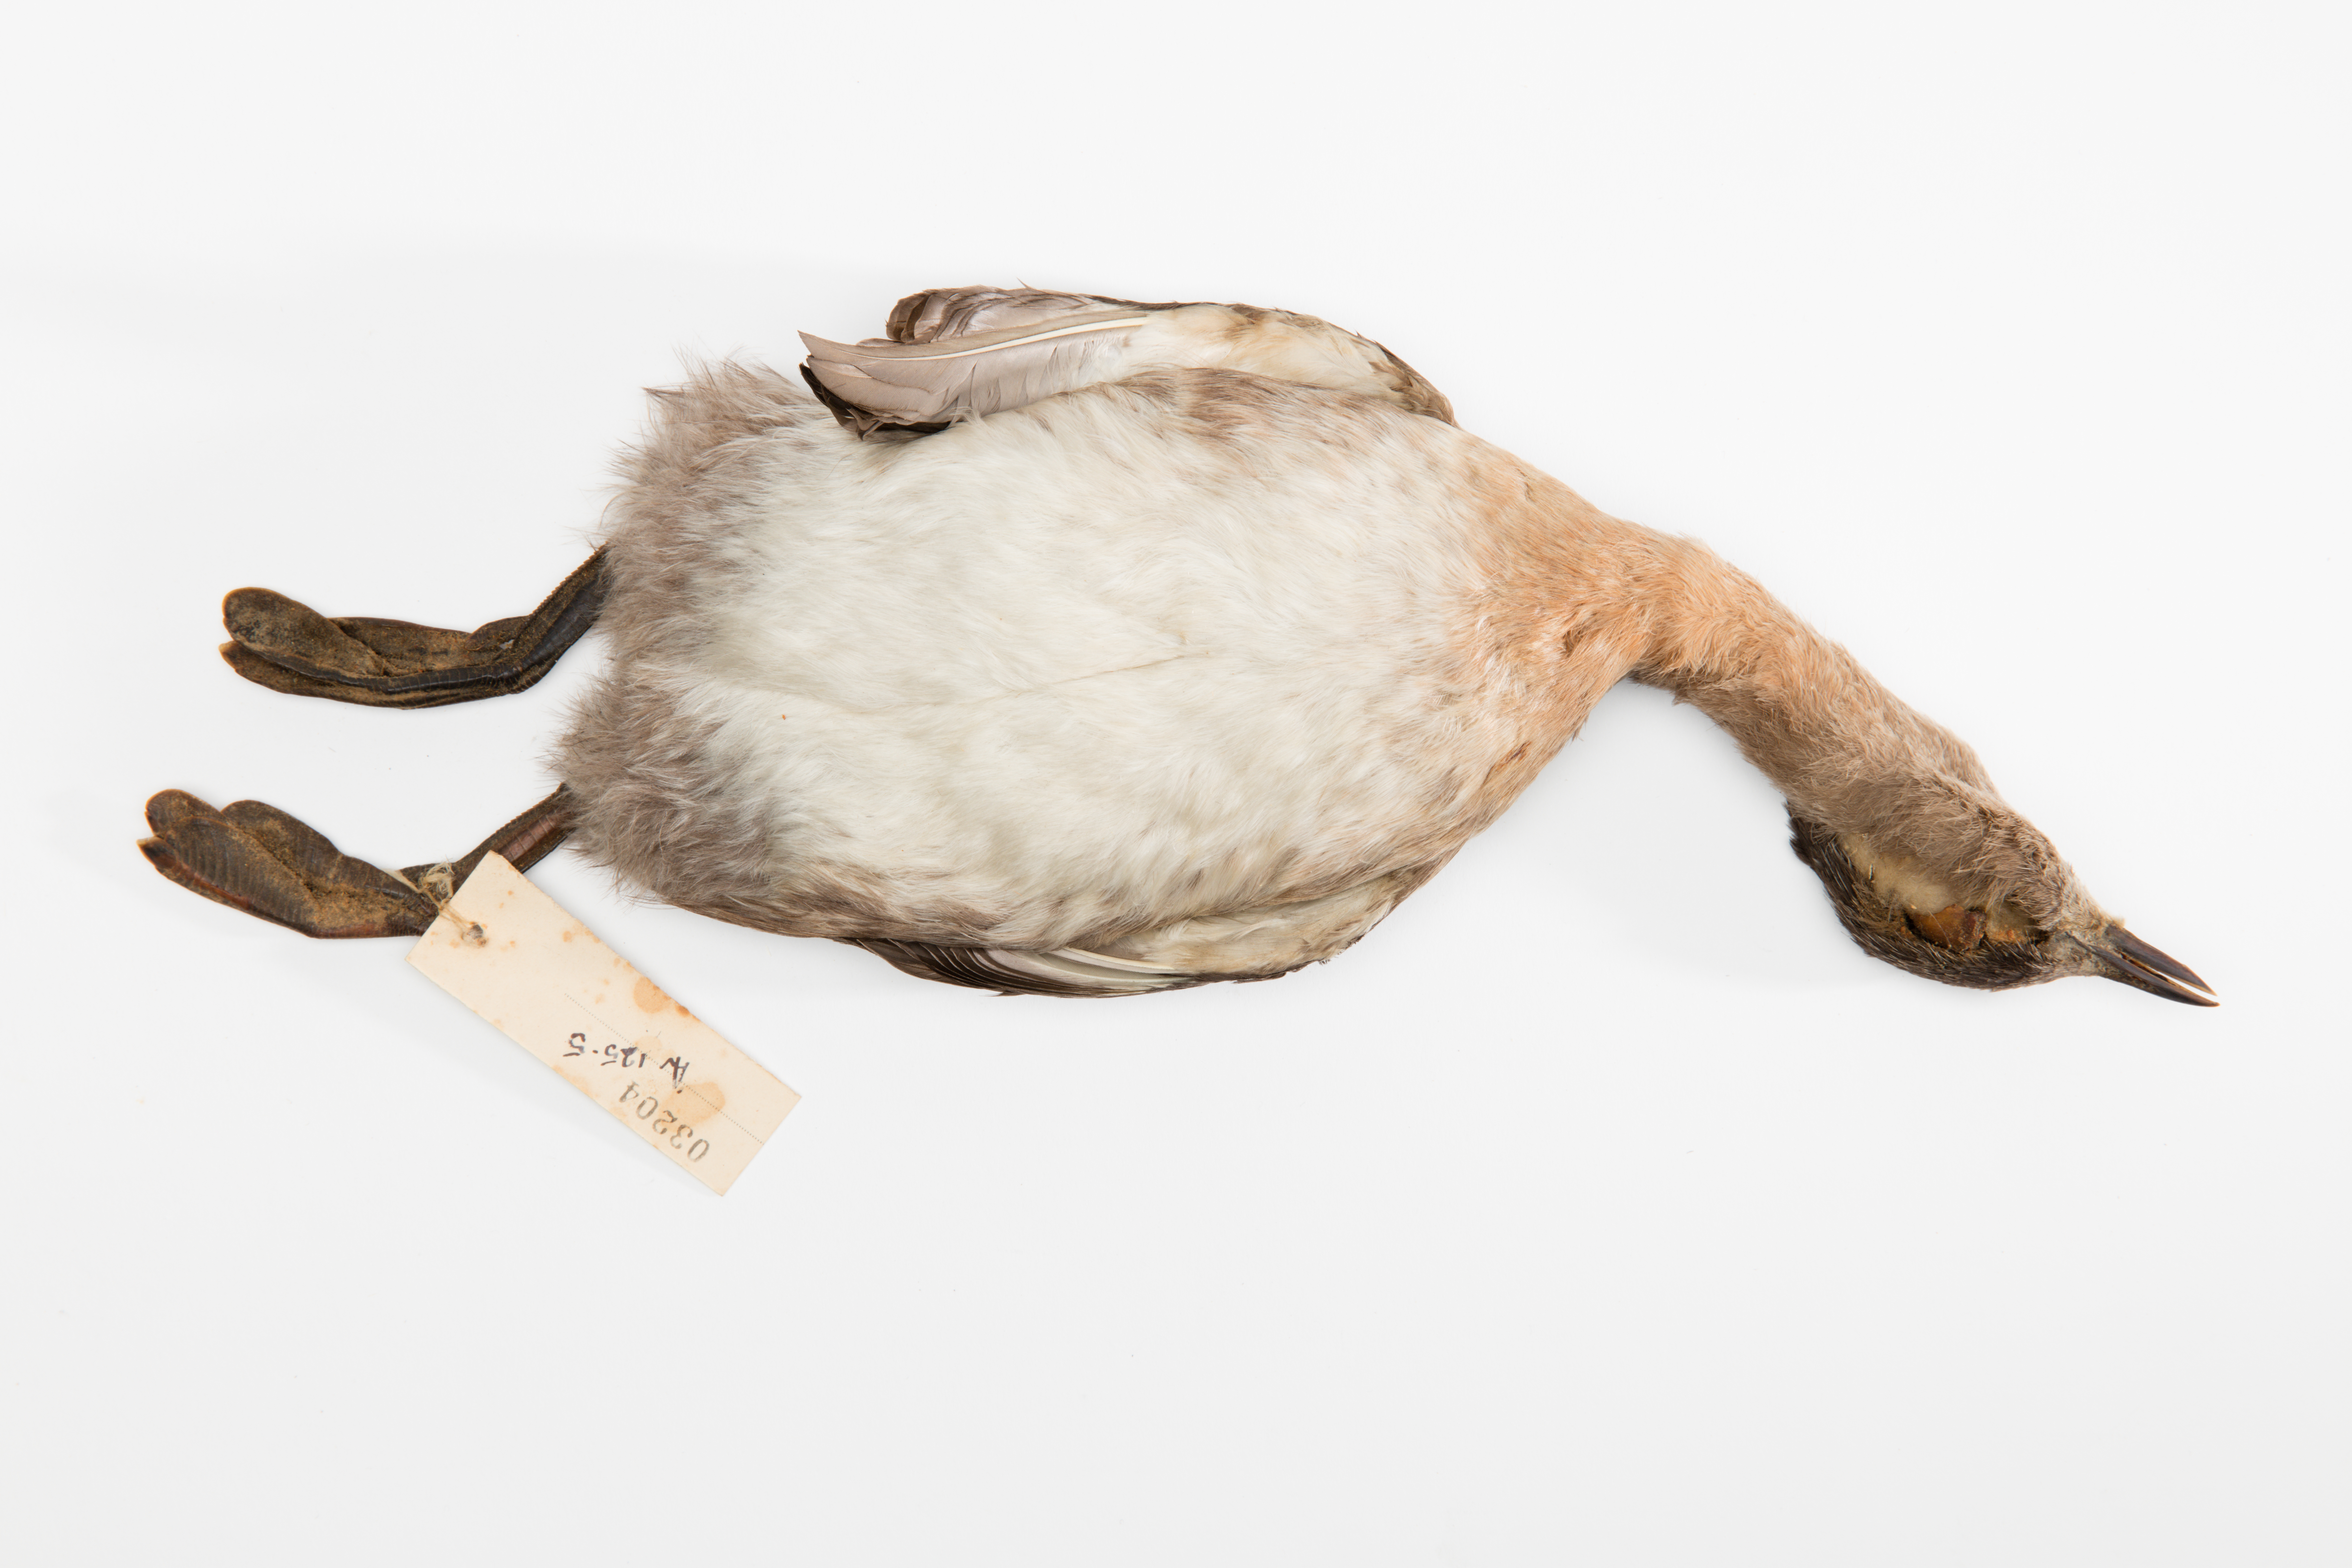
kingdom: Animalia
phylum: Chordata
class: Aves
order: Podicipediformes
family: Podicipedidae
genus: Poliocephalus
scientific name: Poliocephalus rufopectus
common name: New zealand grebe
